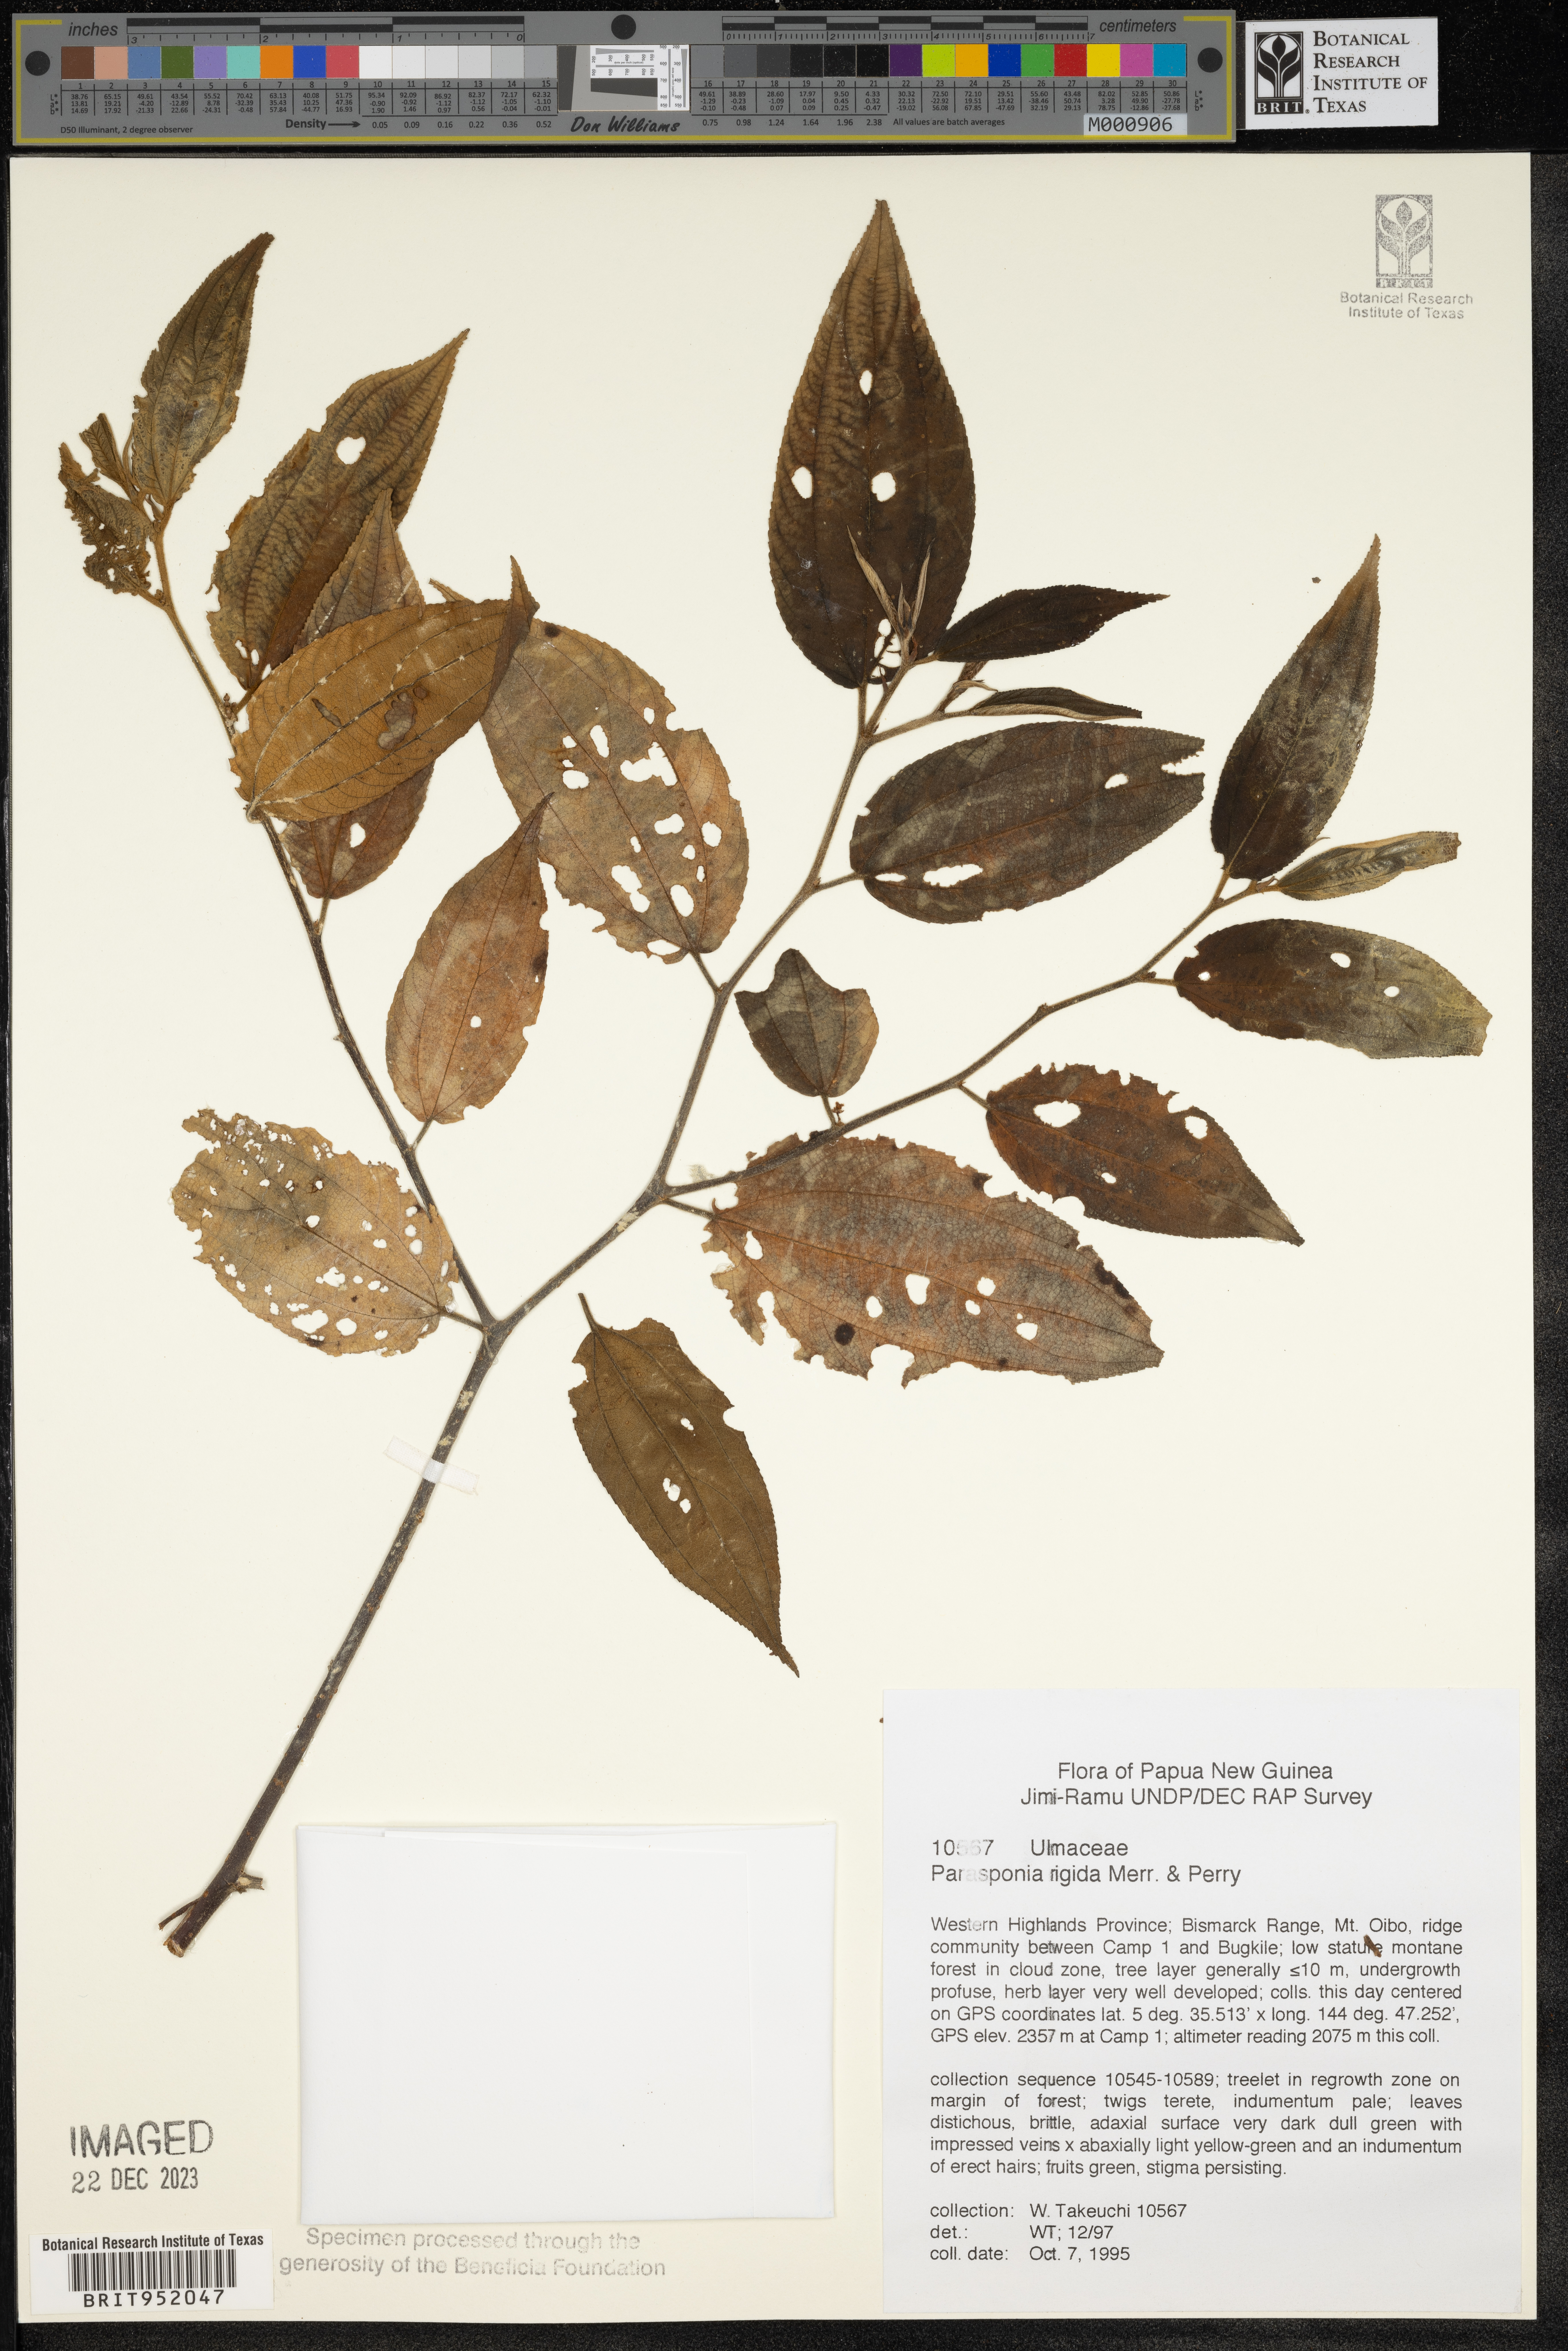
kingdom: Plantae
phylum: Tracheophyta
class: Magnoliopsida
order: Rosales
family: Cannabaceae
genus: Trema
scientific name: Trema
